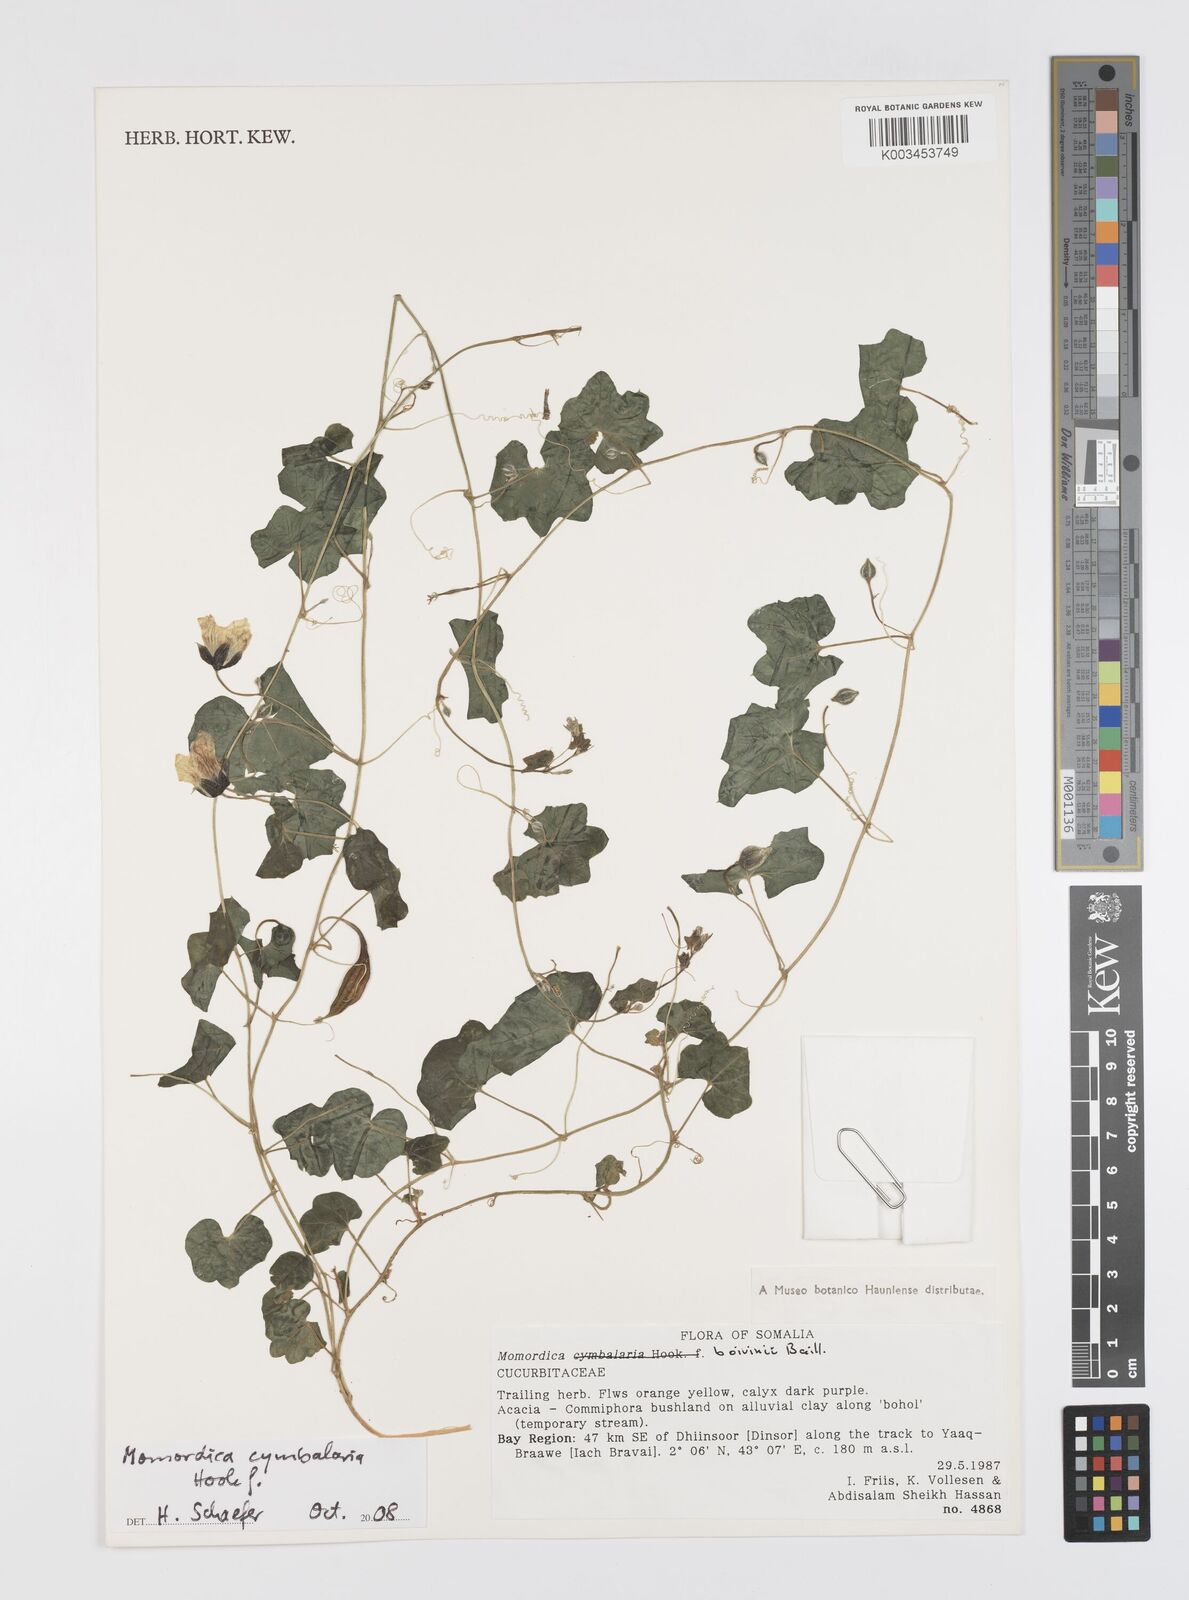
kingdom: Plantae
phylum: Tracheophyta
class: Magnoliopsida
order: Cucurbitales
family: Cucurbitaceae
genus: Momordica
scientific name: Momordica boivinii
